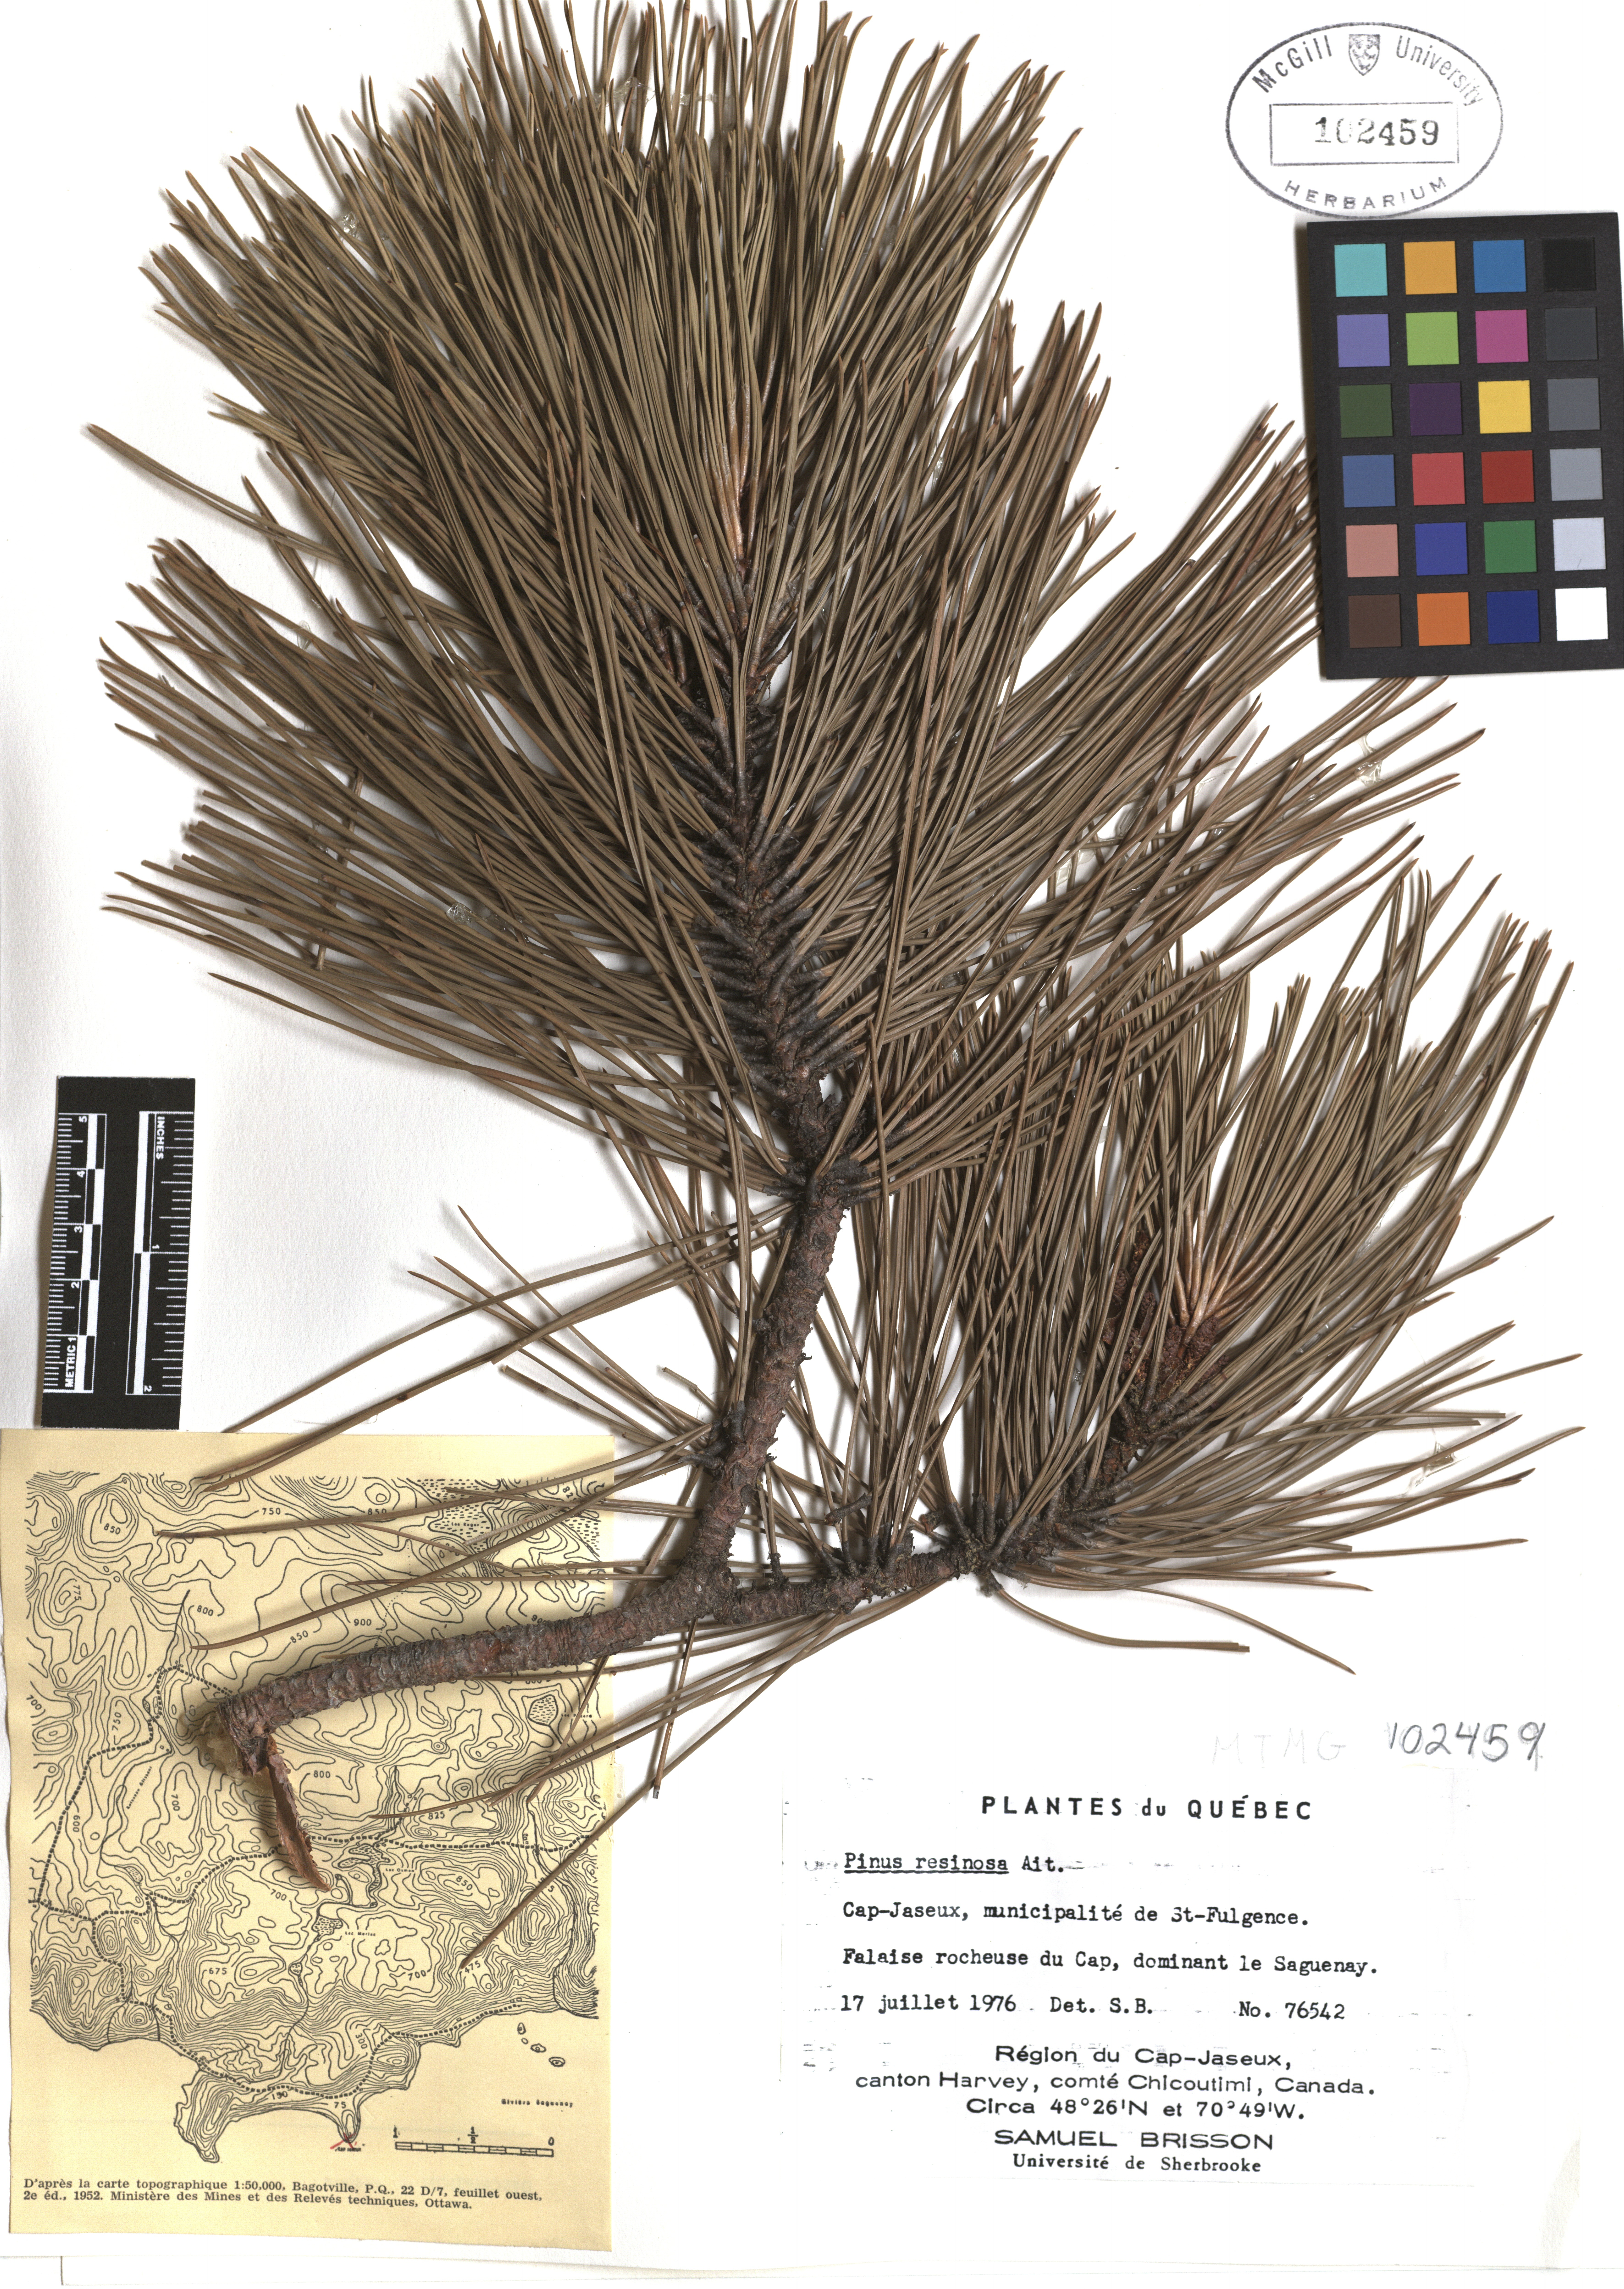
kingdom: Plantae
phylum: Tracheophyta
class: Pinopsida
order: Pinales
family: Pinaceae
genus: Pinus
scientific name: Pinus hartwegii
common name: Hartweg's pine
